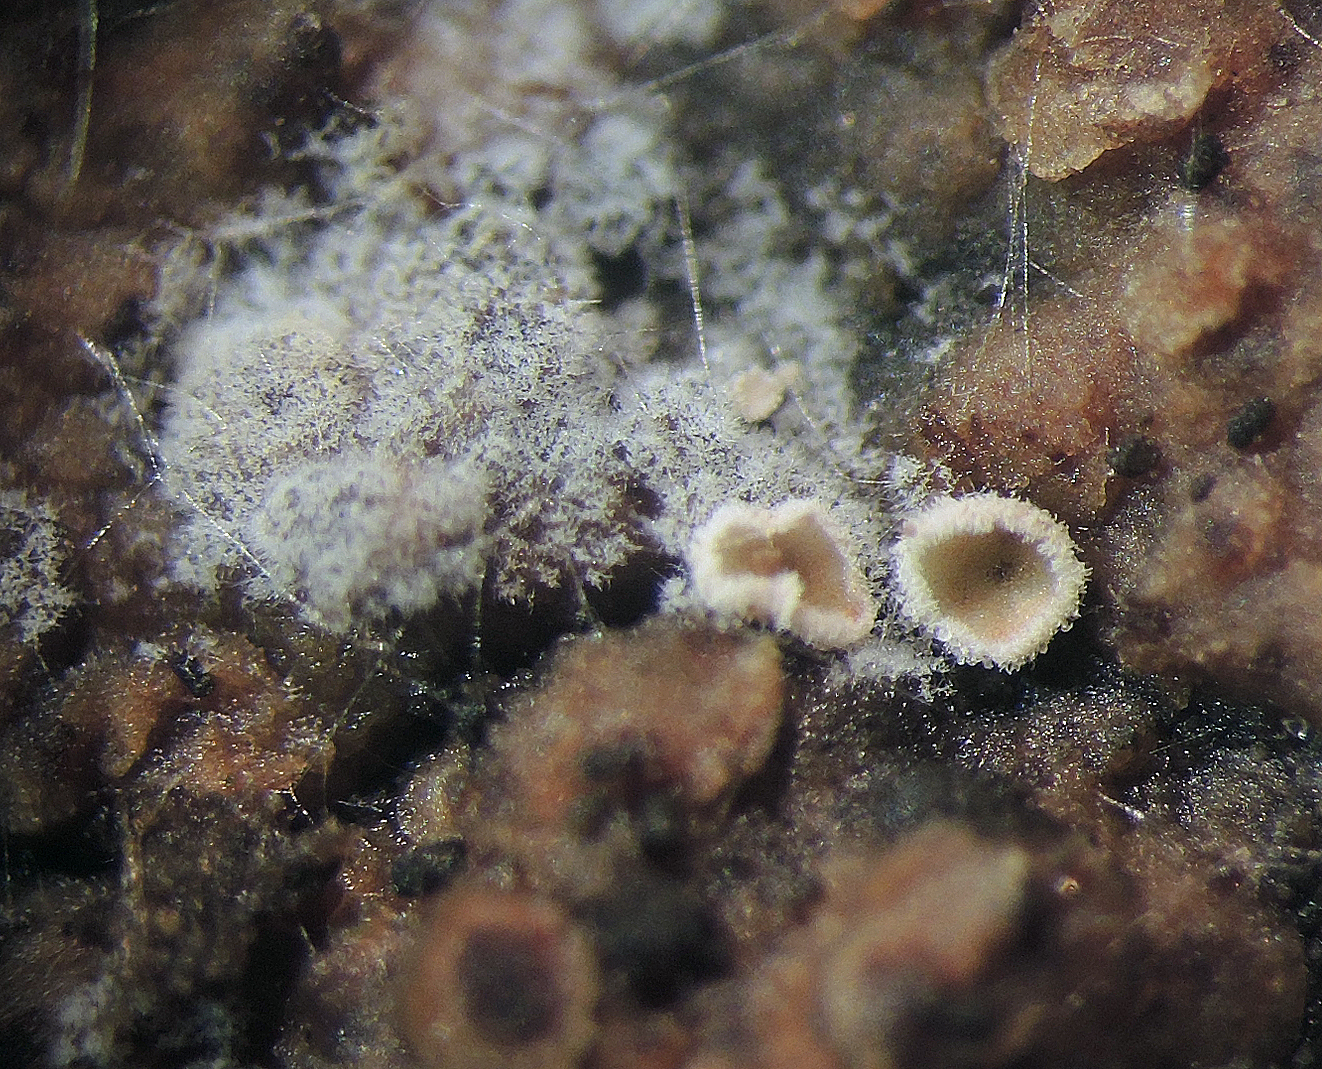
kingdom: Fungi
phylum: Basidiomycota
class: Agaricomycetes
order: Agaricales
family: Crepidotaceae
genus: Episphaeria
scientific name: Episphaeria fraxinicola
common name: askeskål
